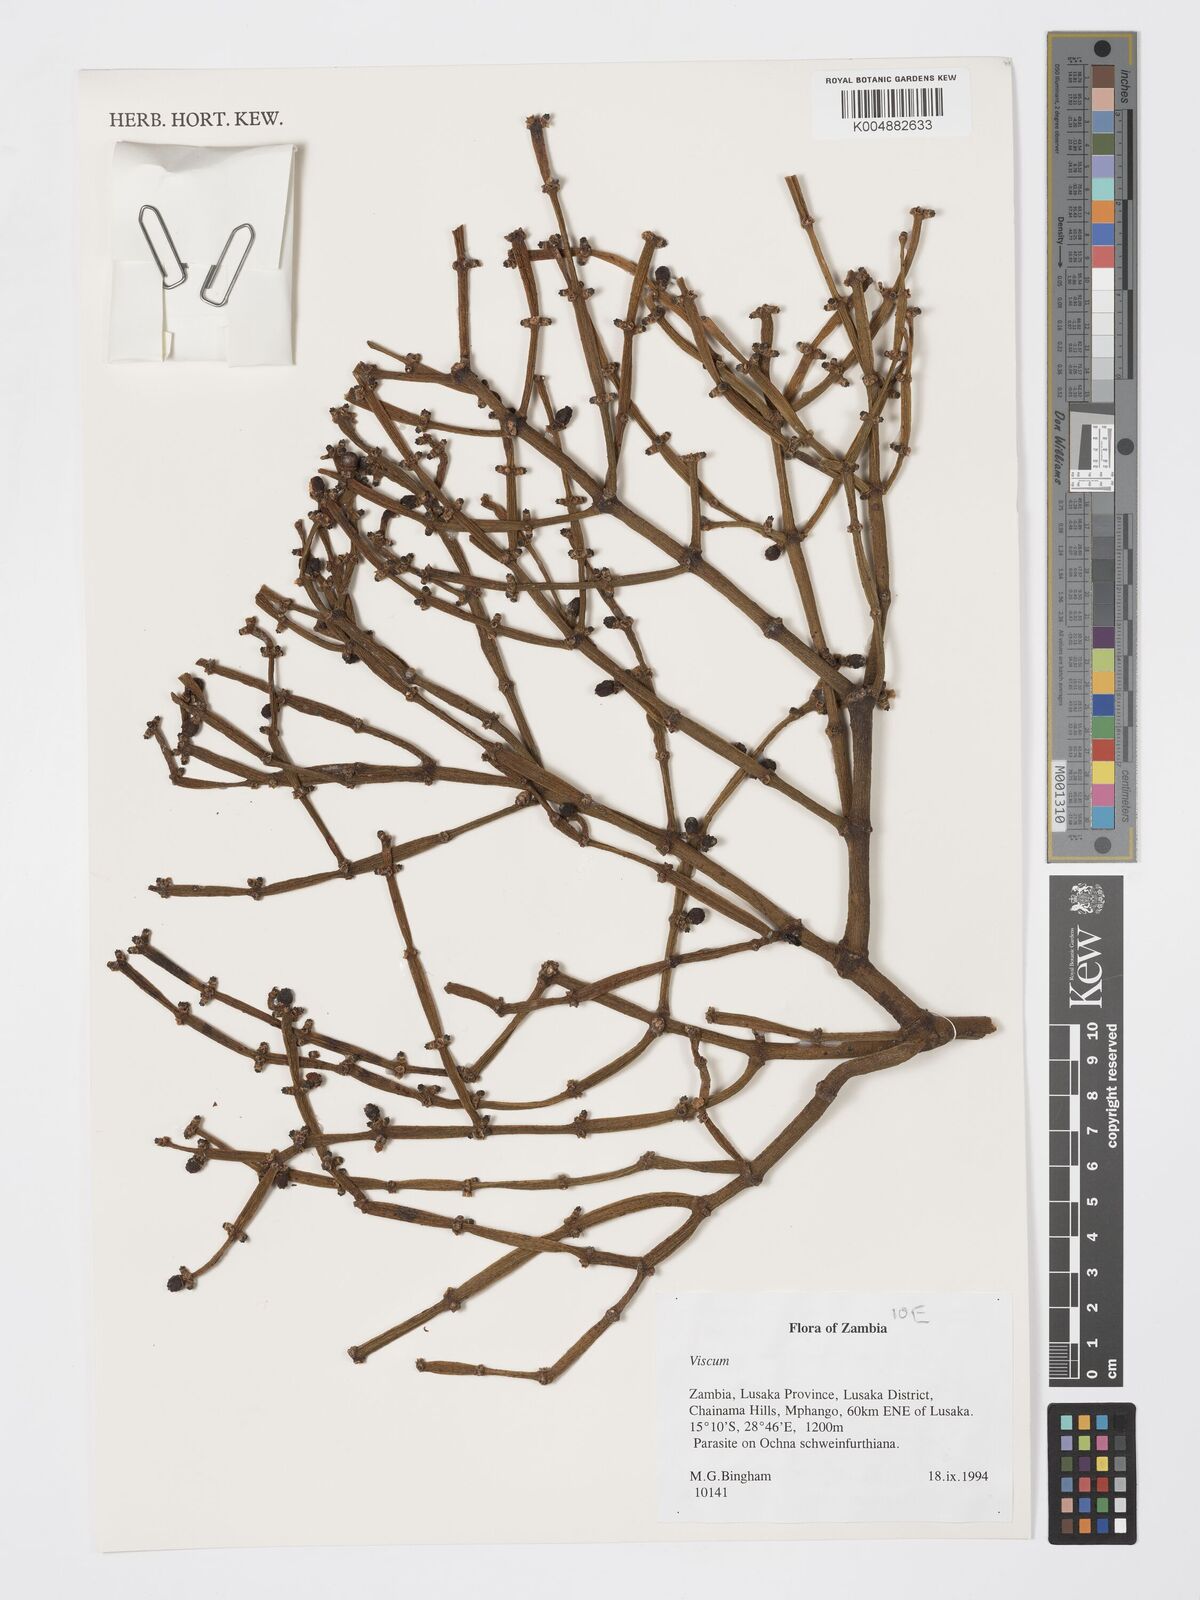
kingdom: Plantae
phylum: Tracheophyta
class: Magnoliopsida
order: Santalales
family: Viscaceae
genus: Viscum
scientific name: Viscum
